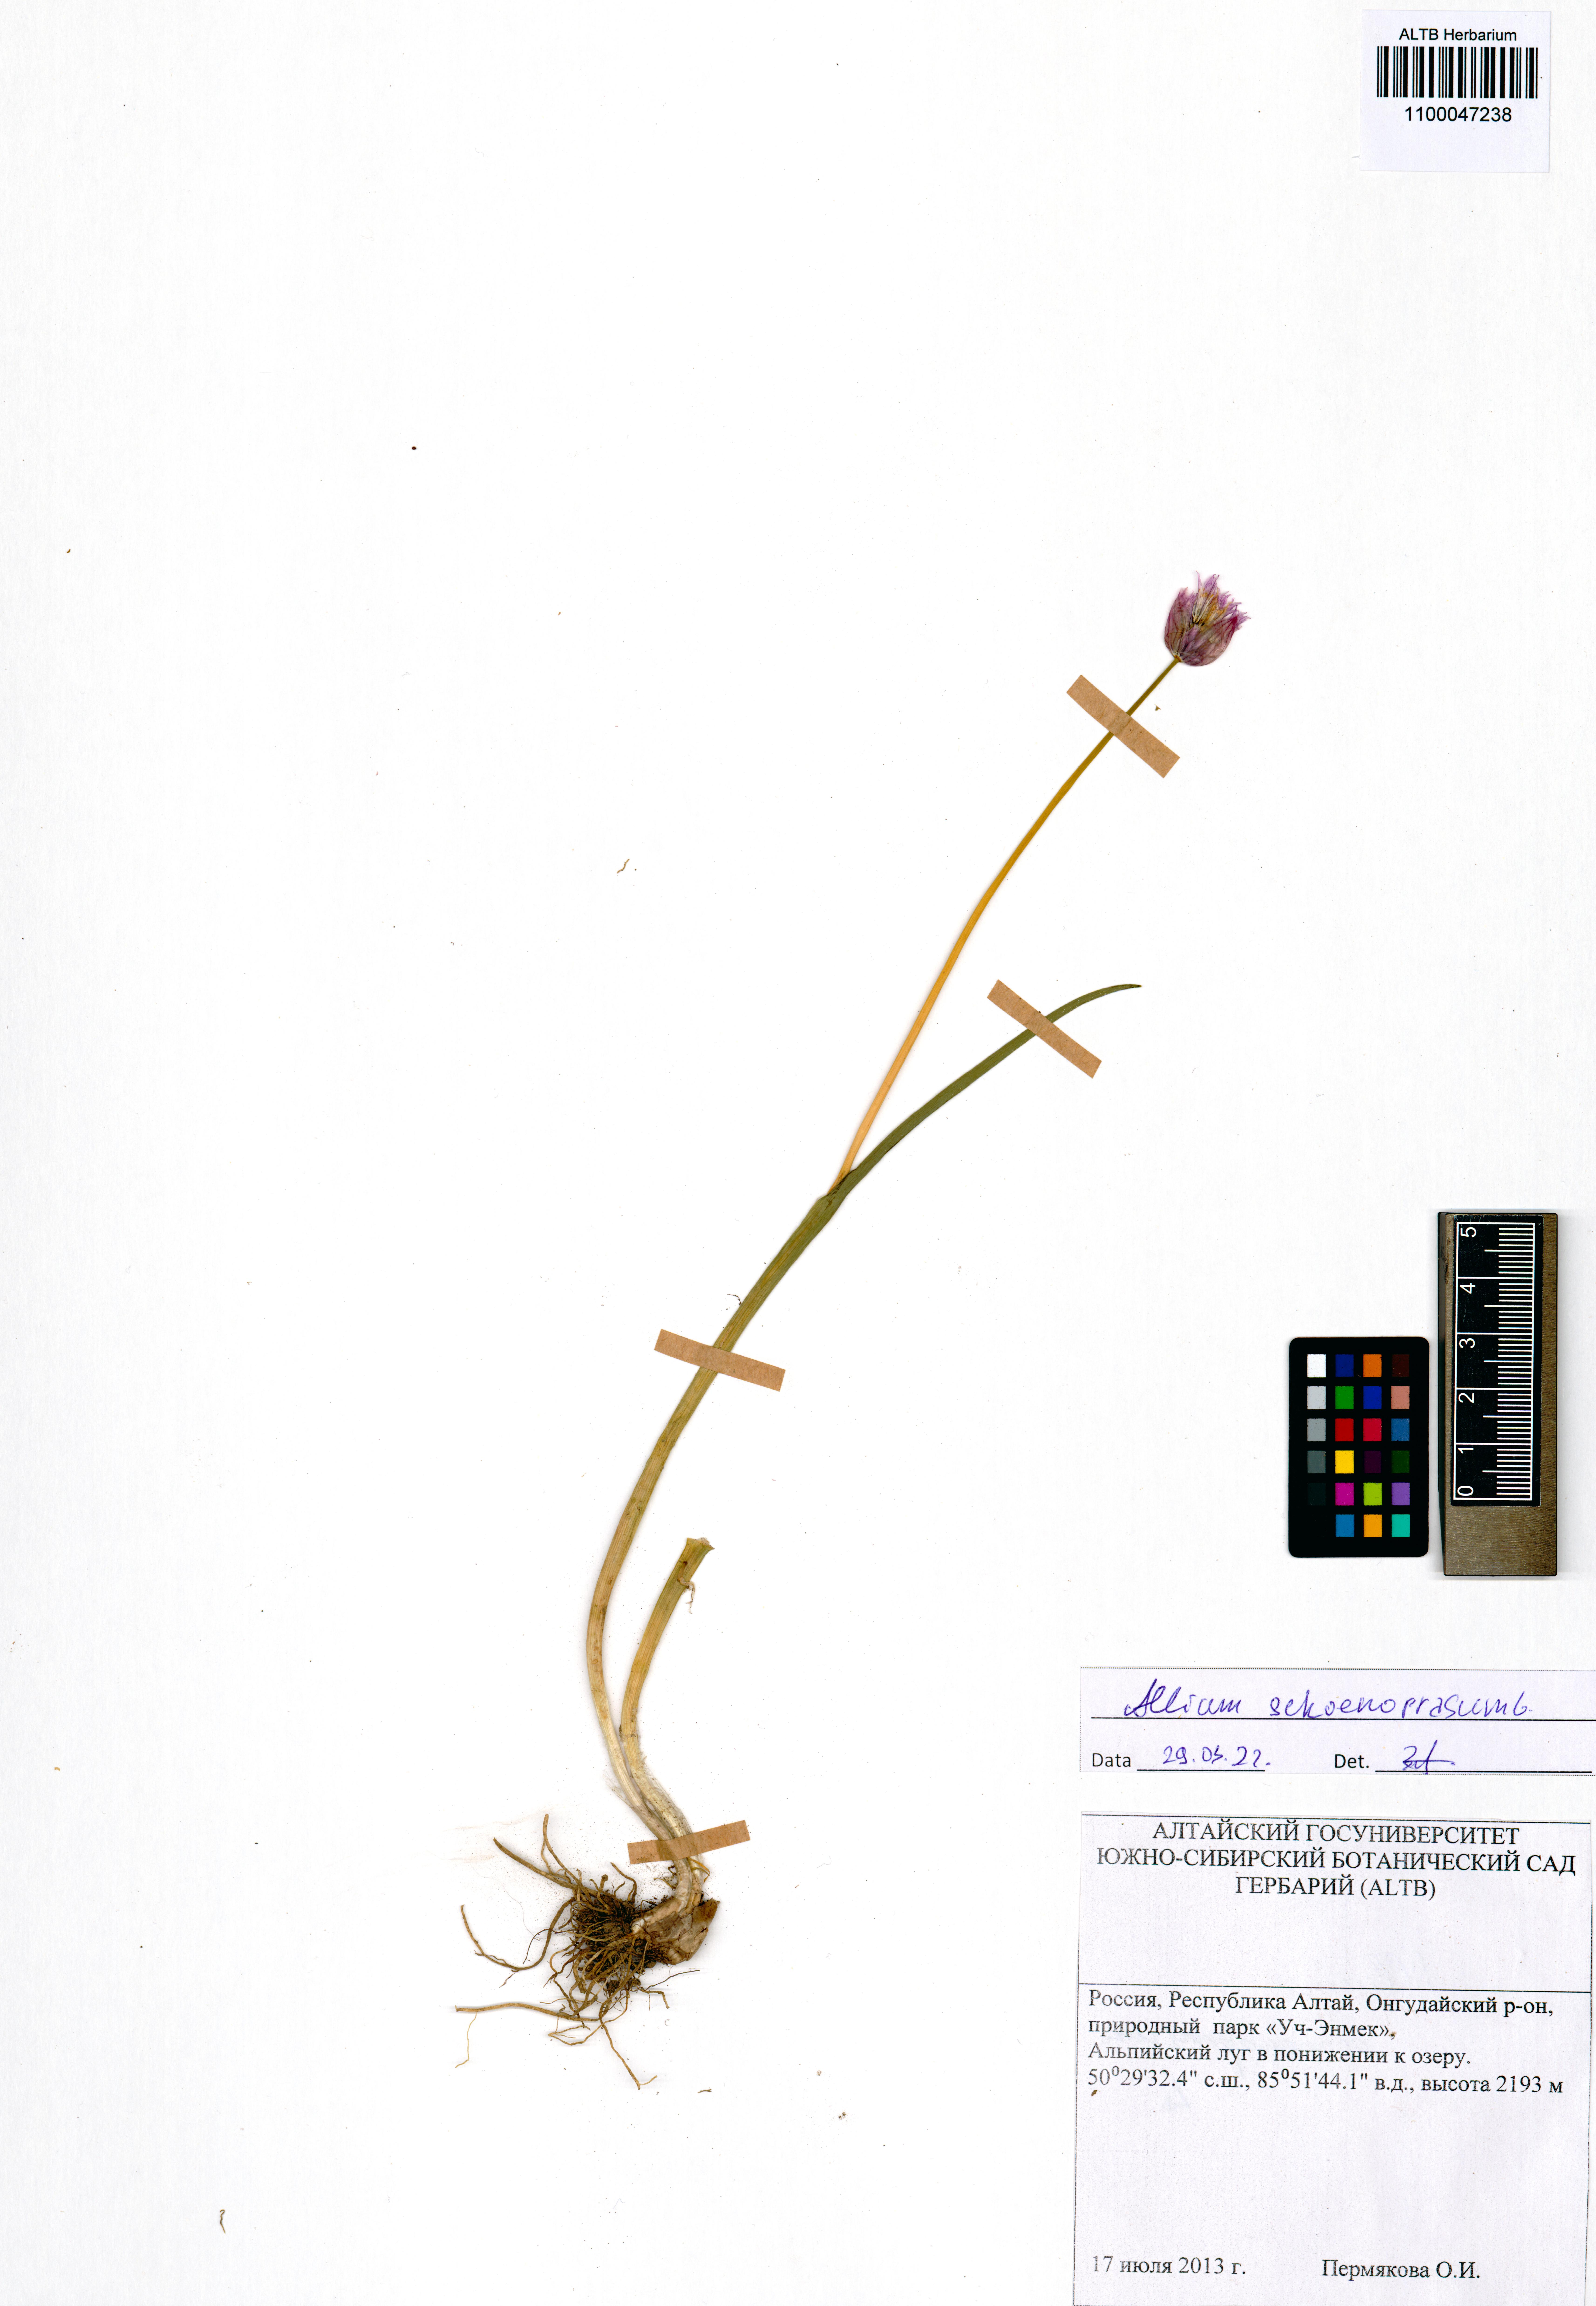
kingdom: Plantae
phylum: Tracheophyta
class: Liliopsida
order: Asparagales
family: Amaryllidaceae
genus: Allium
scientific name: Allium schoenoprasum
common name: Chives
